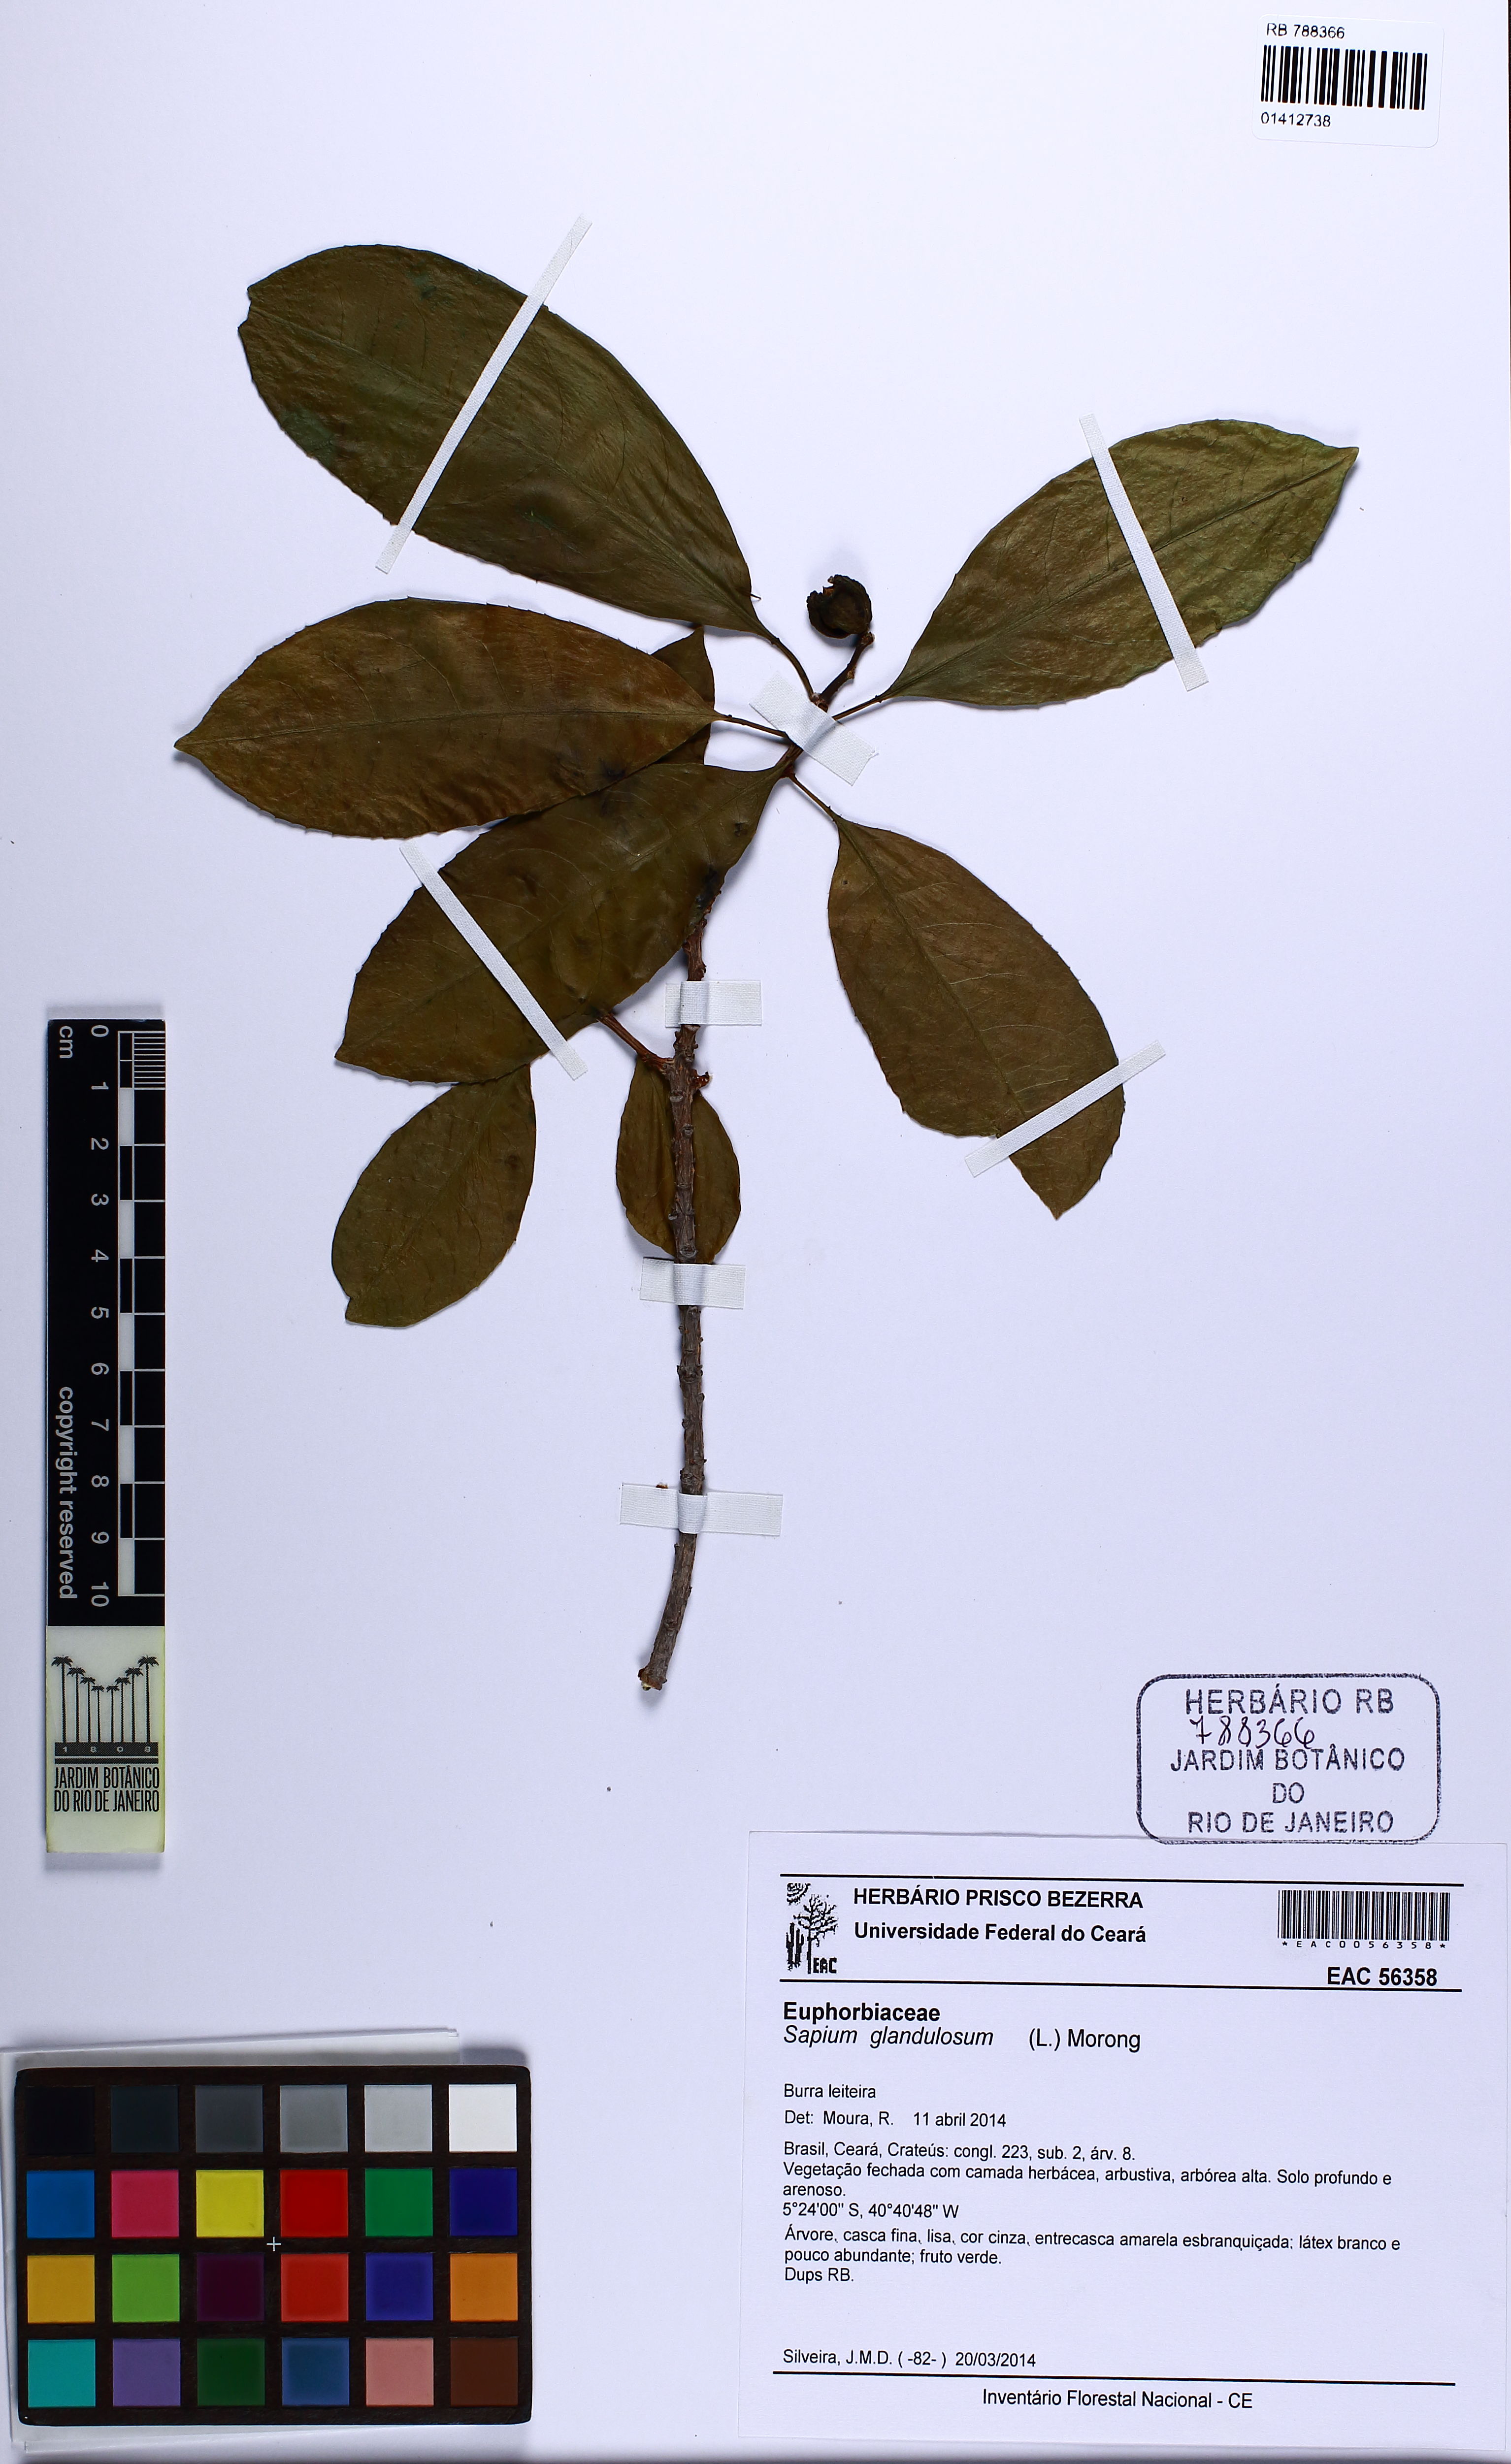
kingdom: Plantae
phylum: Tracheophyta
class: Magnoliopsida
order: Malpighiales
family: Euphorbiaceae
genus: Sapium
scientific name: Sapium glandulosum
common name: Milktree
